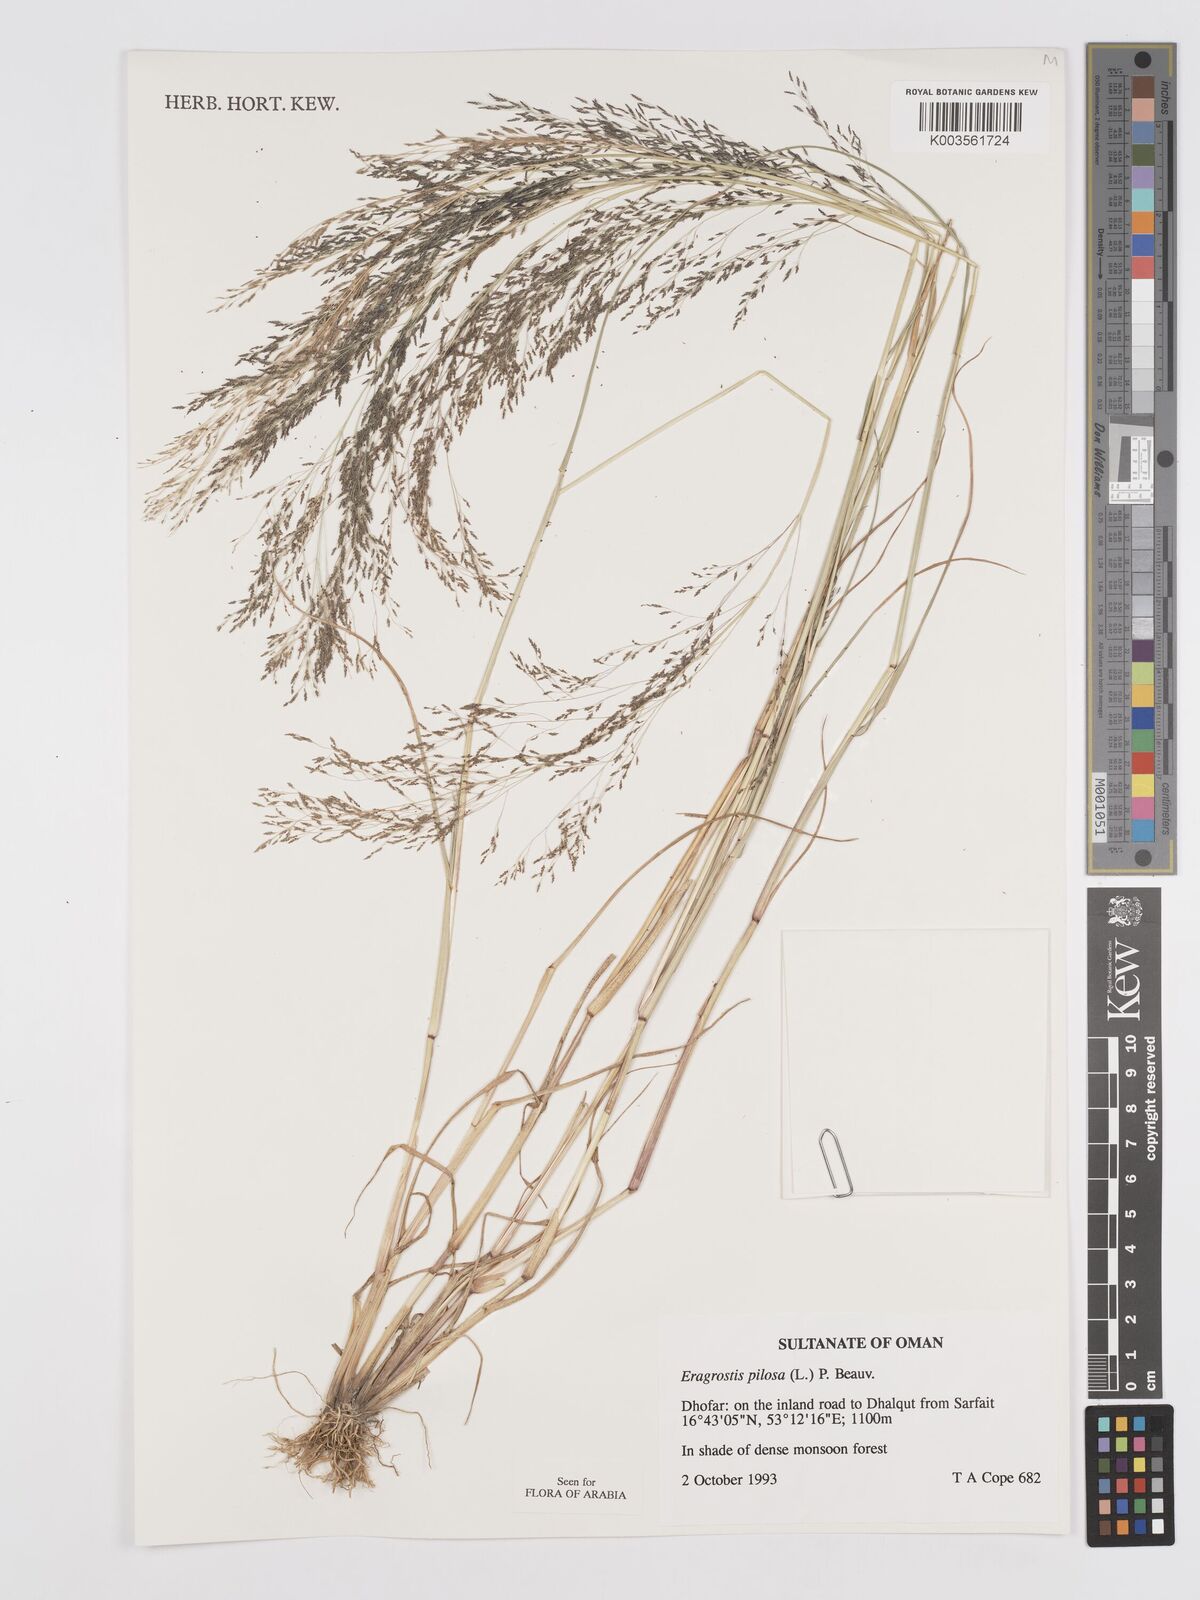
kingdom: Plantae
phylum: Tracheophyta
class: Liliopsida
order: Poales
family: Poaceae
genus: Eragrostis
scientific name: Eragrostis pilosa
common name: Indian lovegrass
